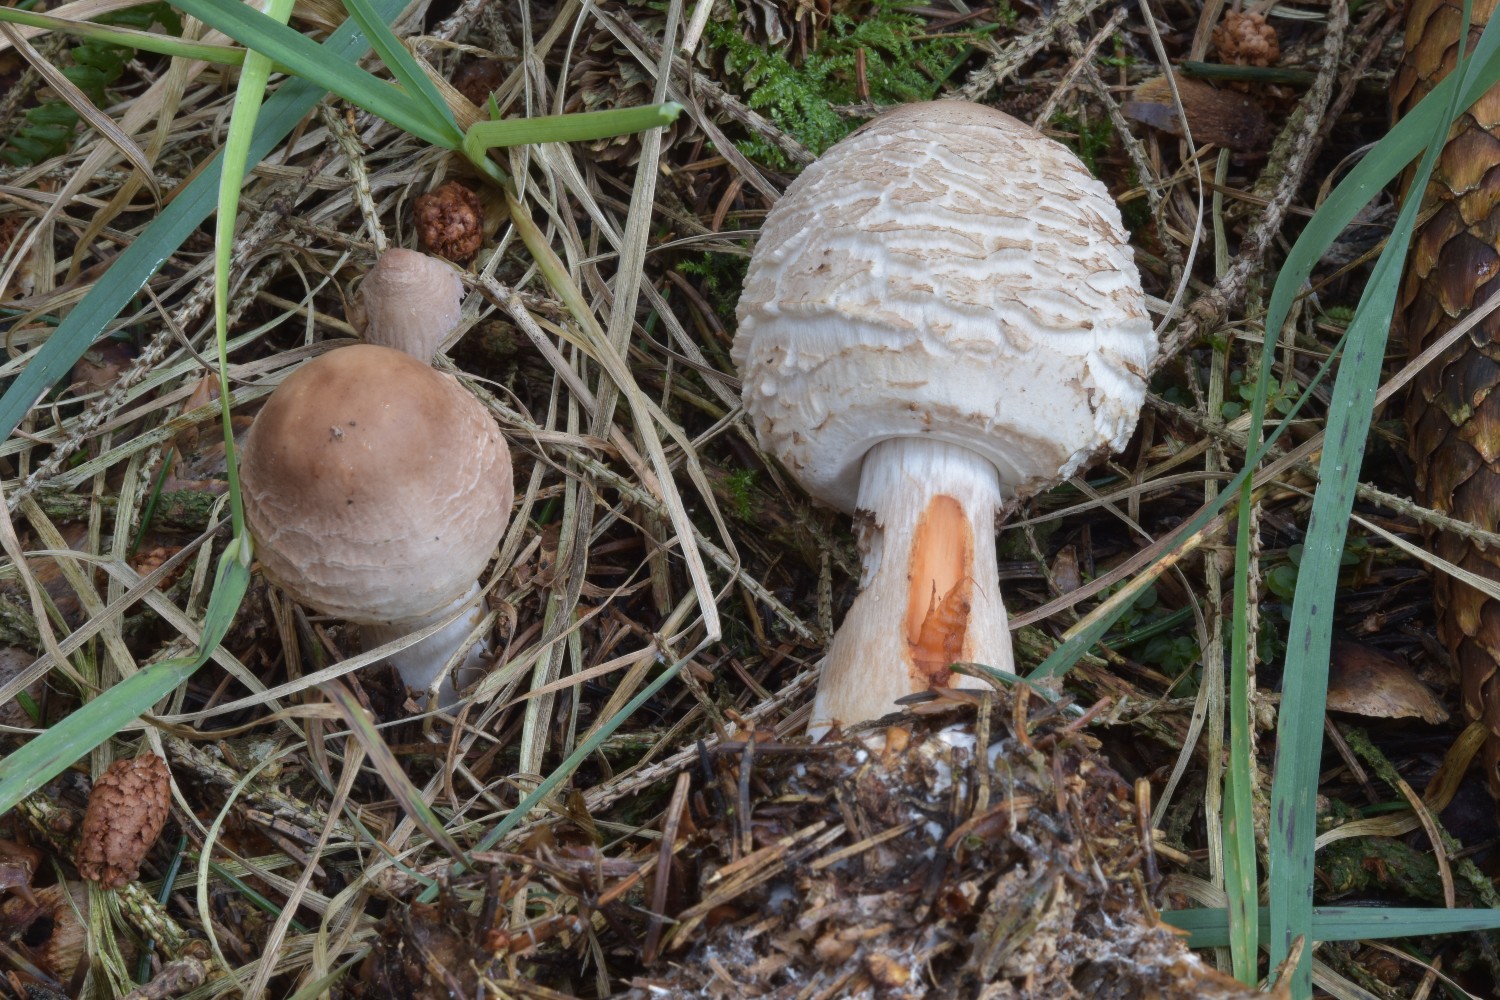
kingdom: Fungi
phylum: Basidiomycota
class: Agaricomycetes
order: Agaricales
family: Agaricaceae
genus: Chlorophyllum
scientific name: Chlorophyllum olivieri
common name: almindelig rabarberhat
